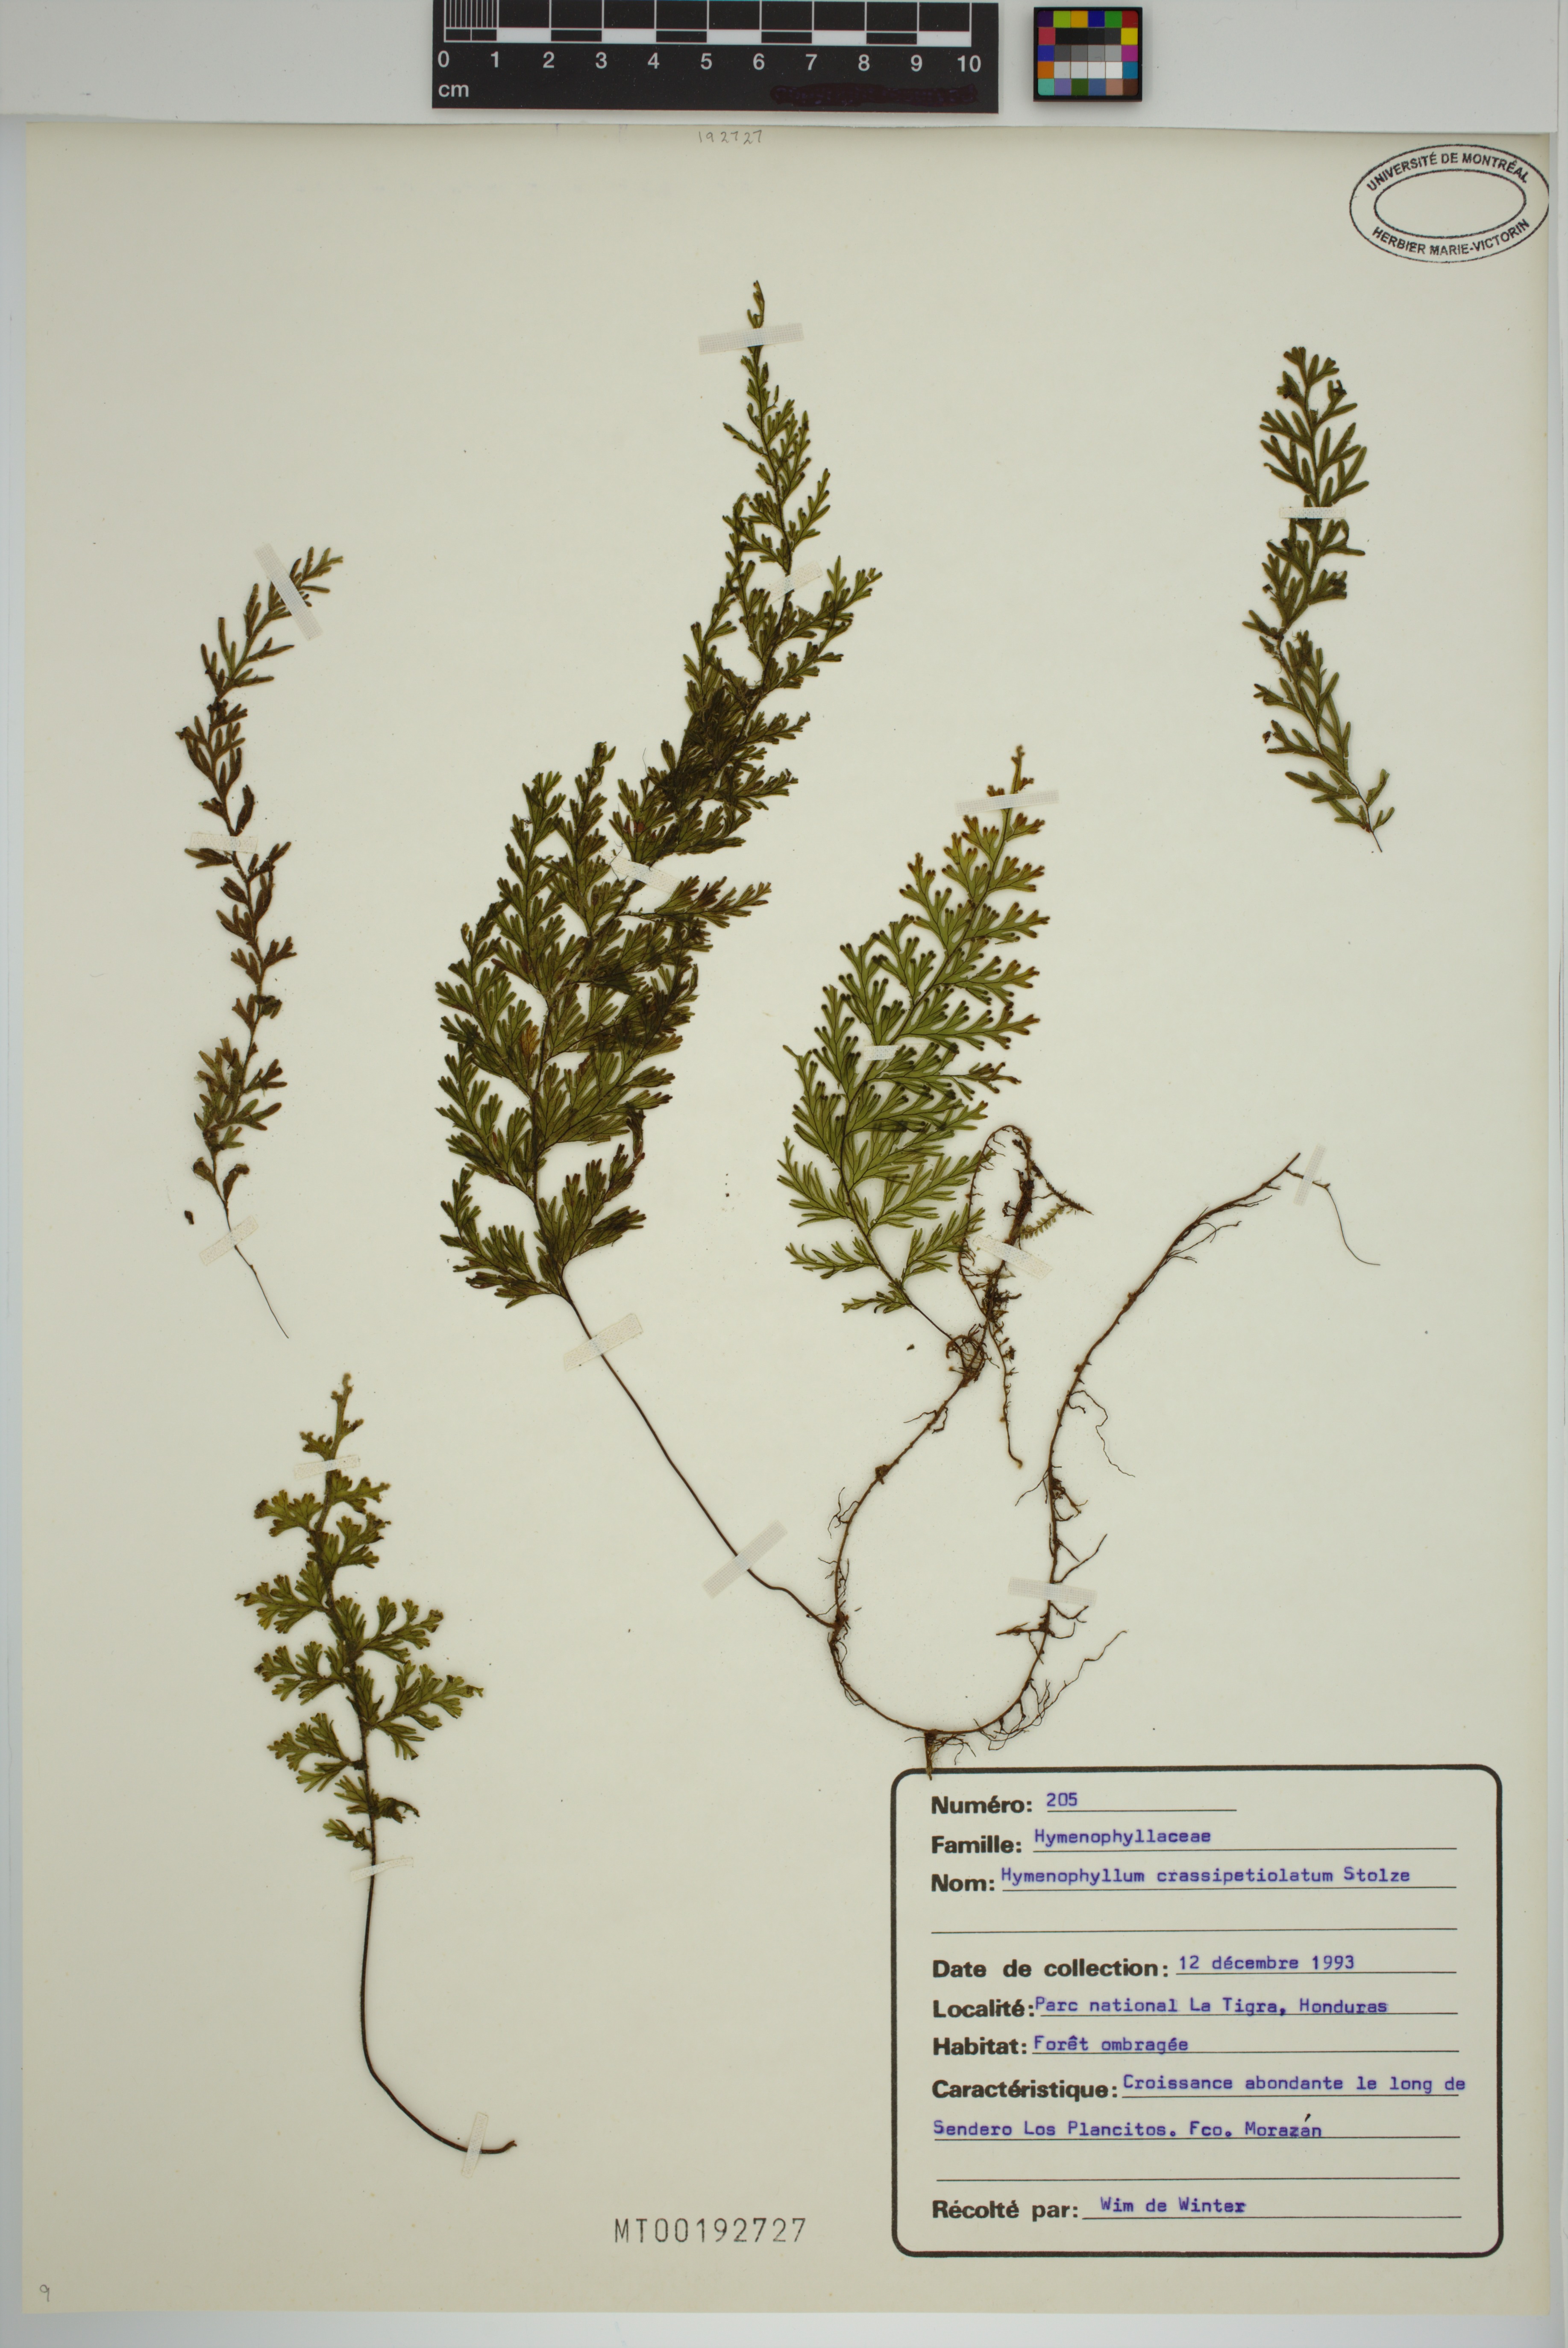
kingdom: Plantae
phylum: Tracheophyta
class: Polypodiopsida
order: Hymenophyllales
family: Hymenophyllaceae
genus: Hymenophyllum
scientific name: Hymenophyllum crassipetiolatum
